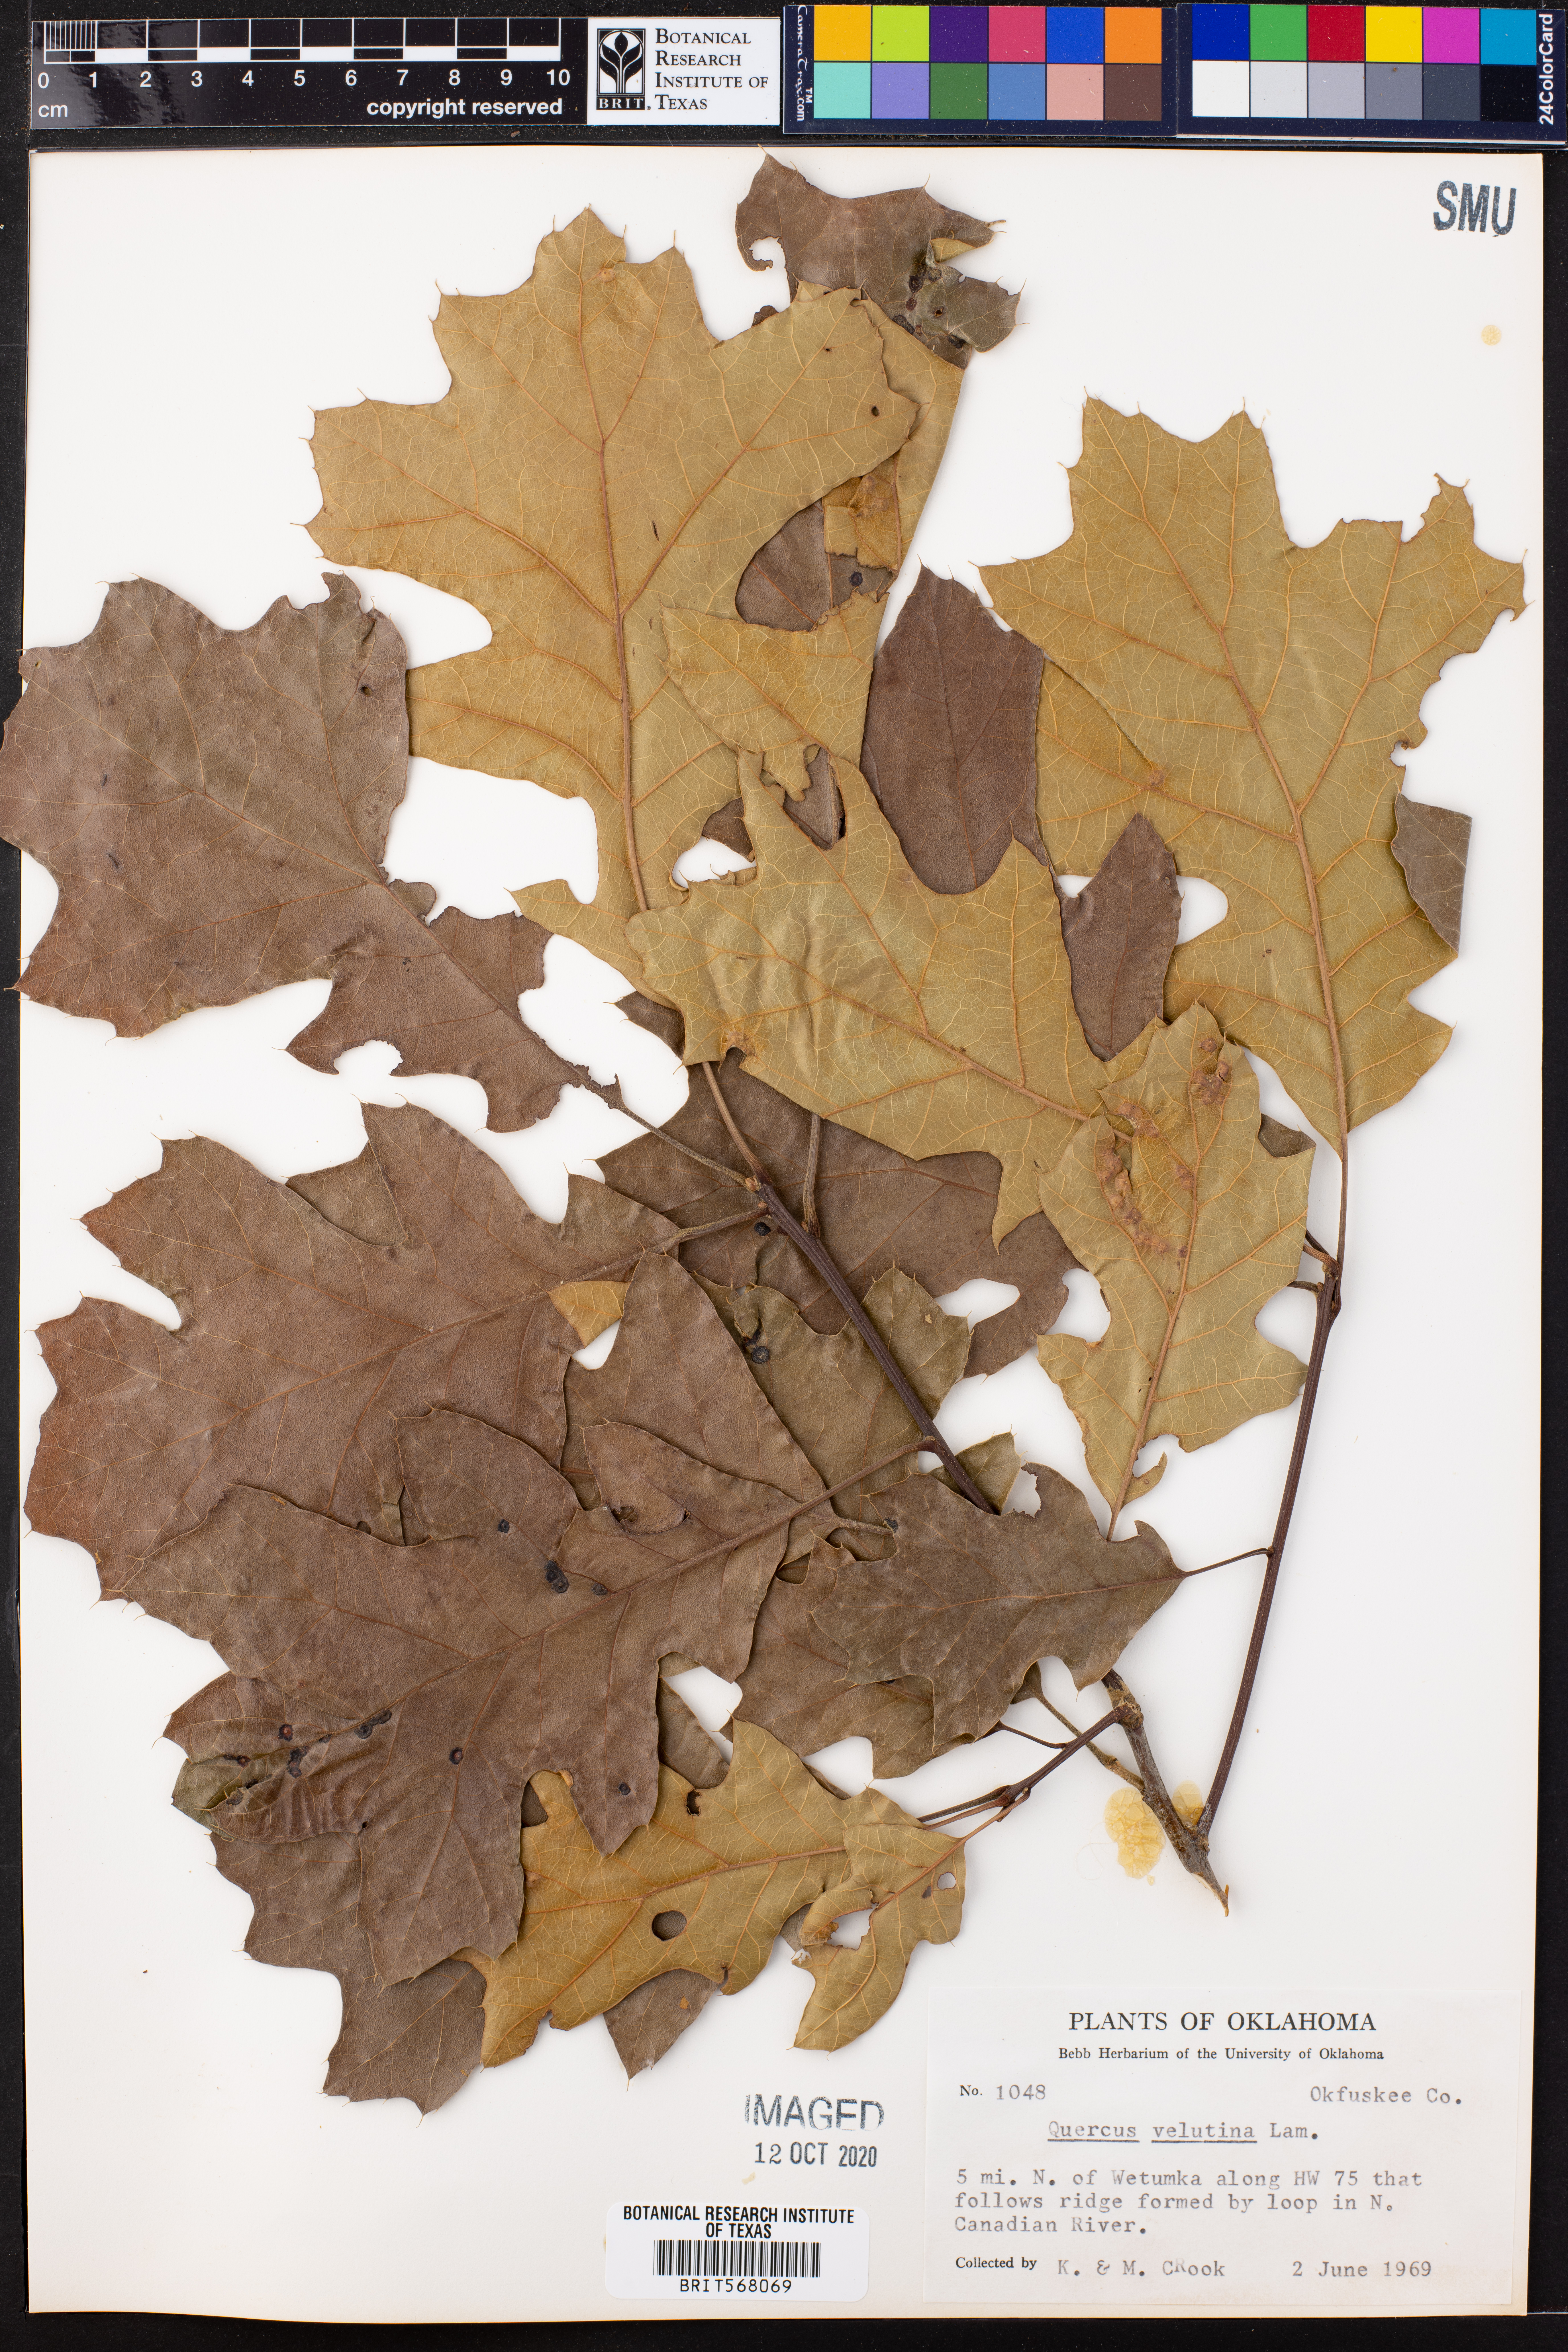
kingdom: Plantae
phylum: Tracheophyta
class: Magnoliopsida
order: Fagales
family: Fagaceae
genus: Quercus
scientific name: Quercus velutina
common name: Black oak
